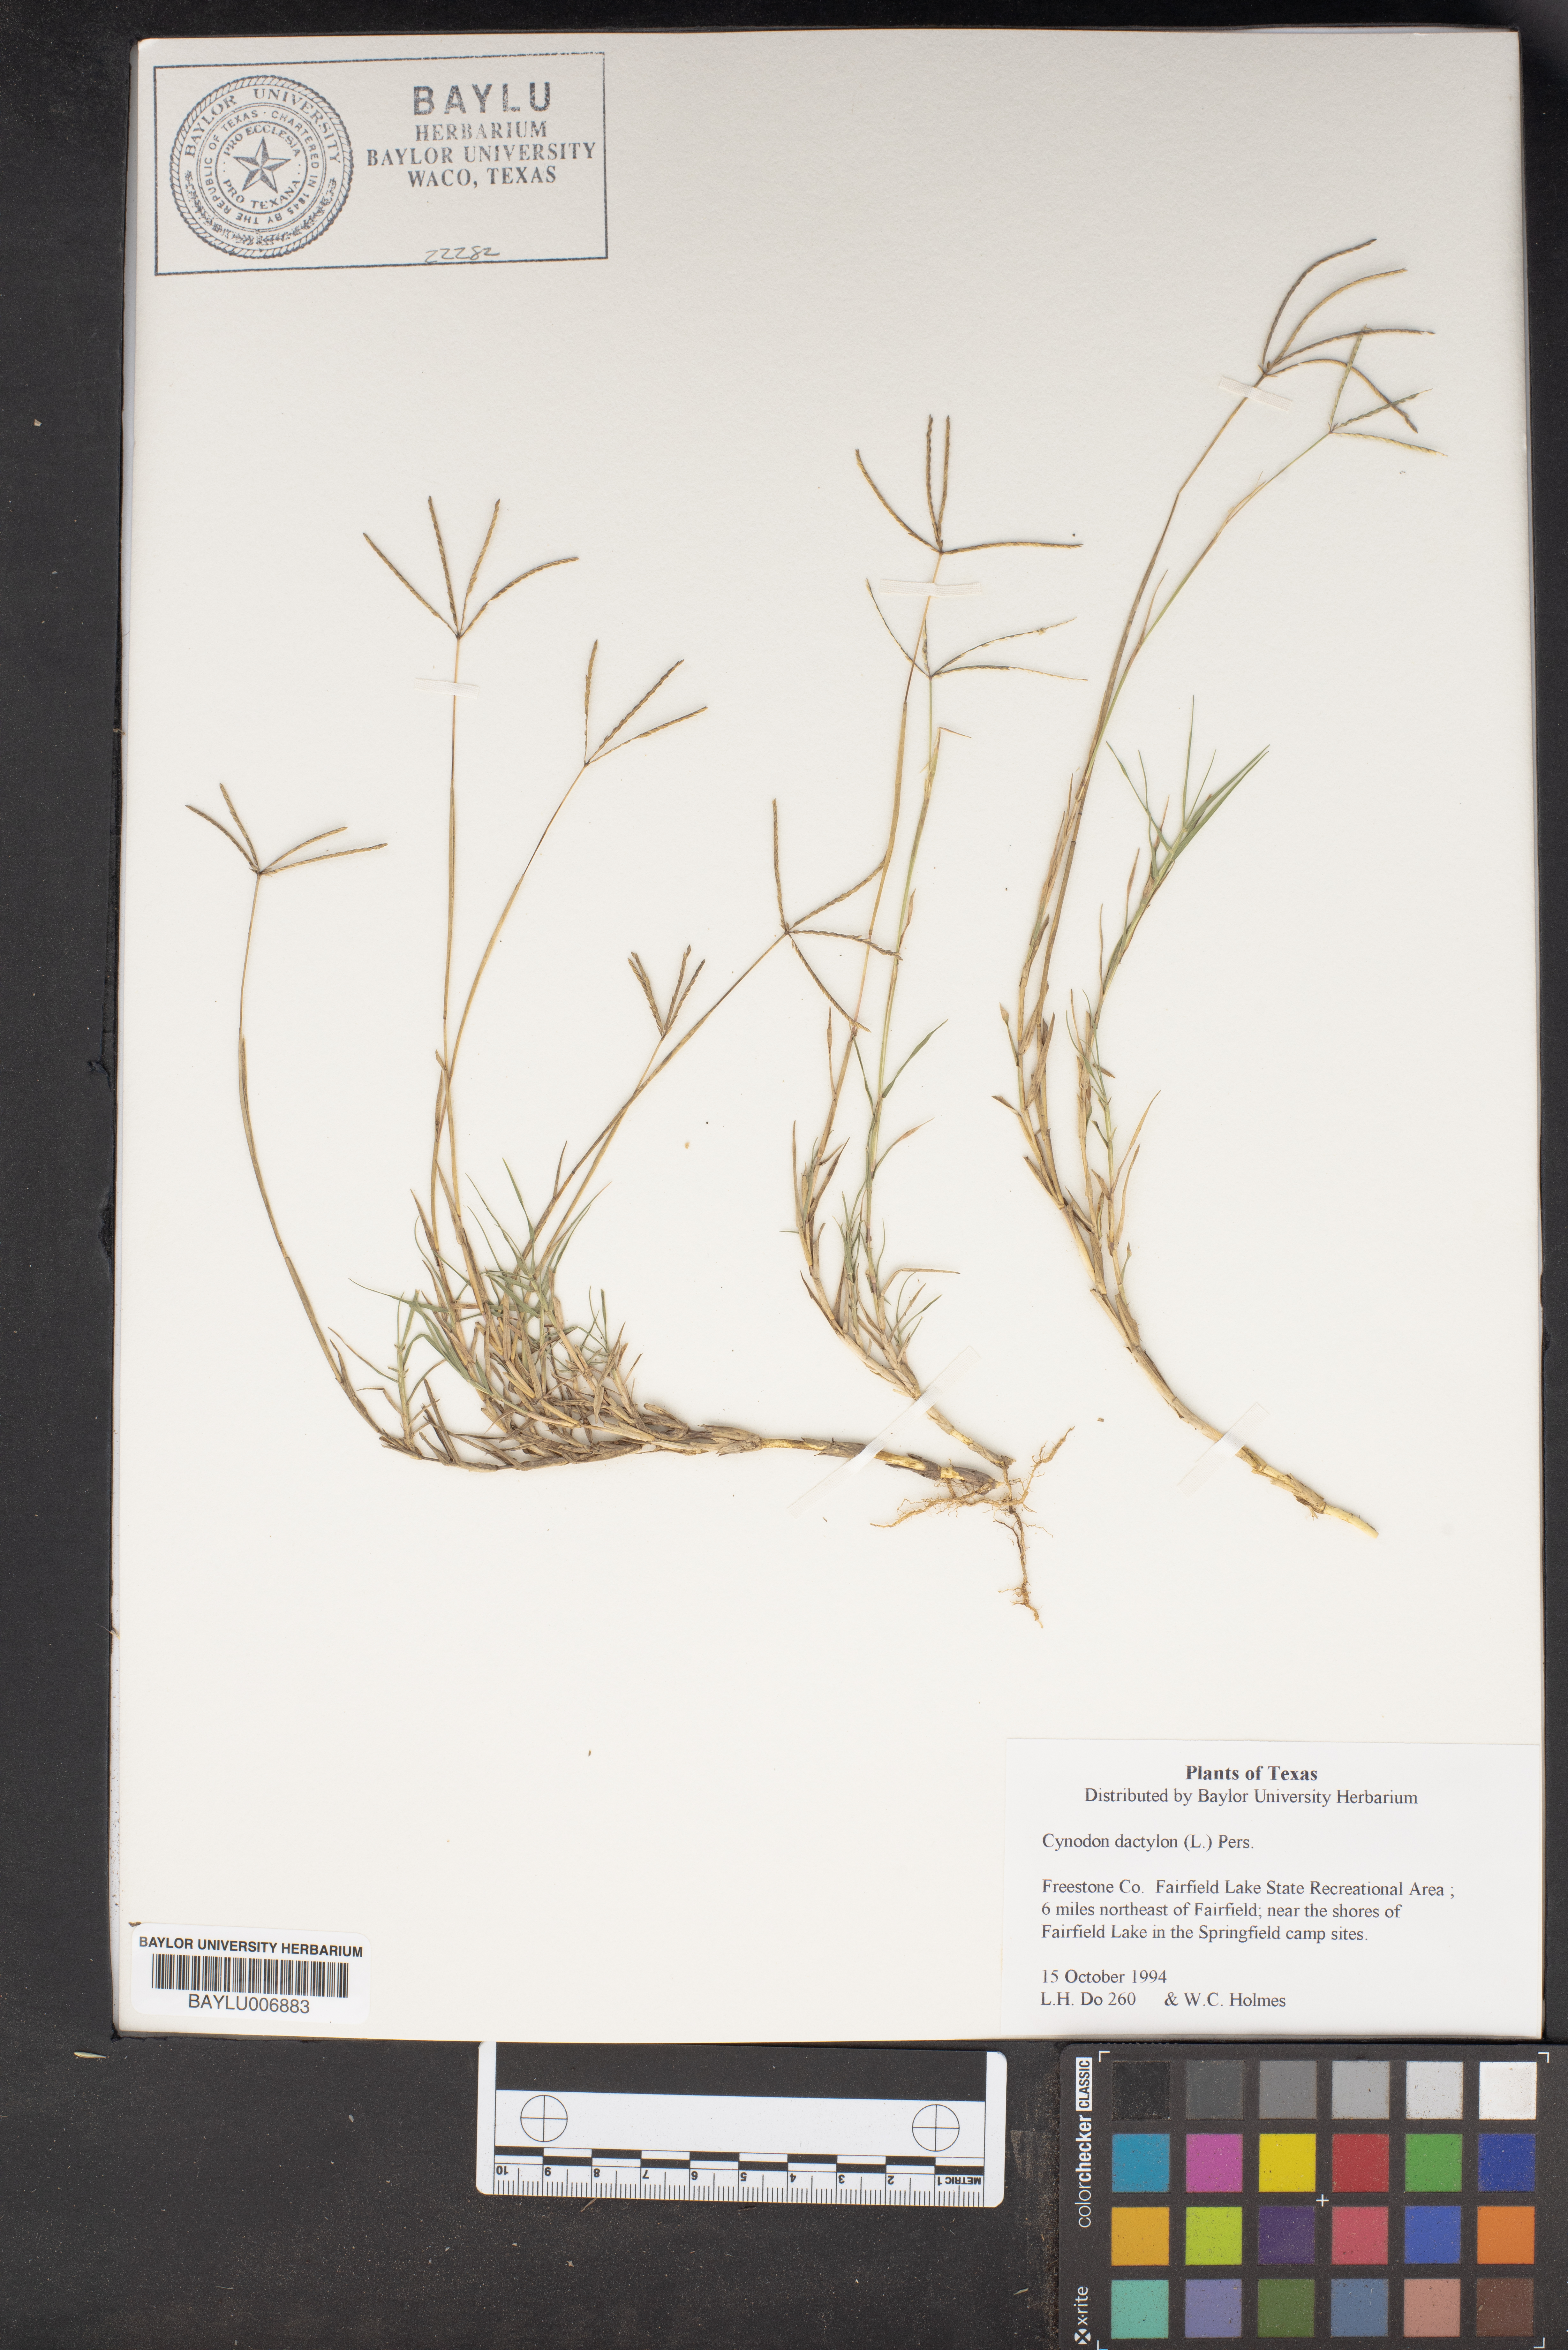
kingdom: Plantae
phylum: Tracheophyta
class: Liliopsida
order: Poales
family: Poaceae
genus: Cynodon
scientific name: Cynodon dactylon
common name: Bermuda grass
